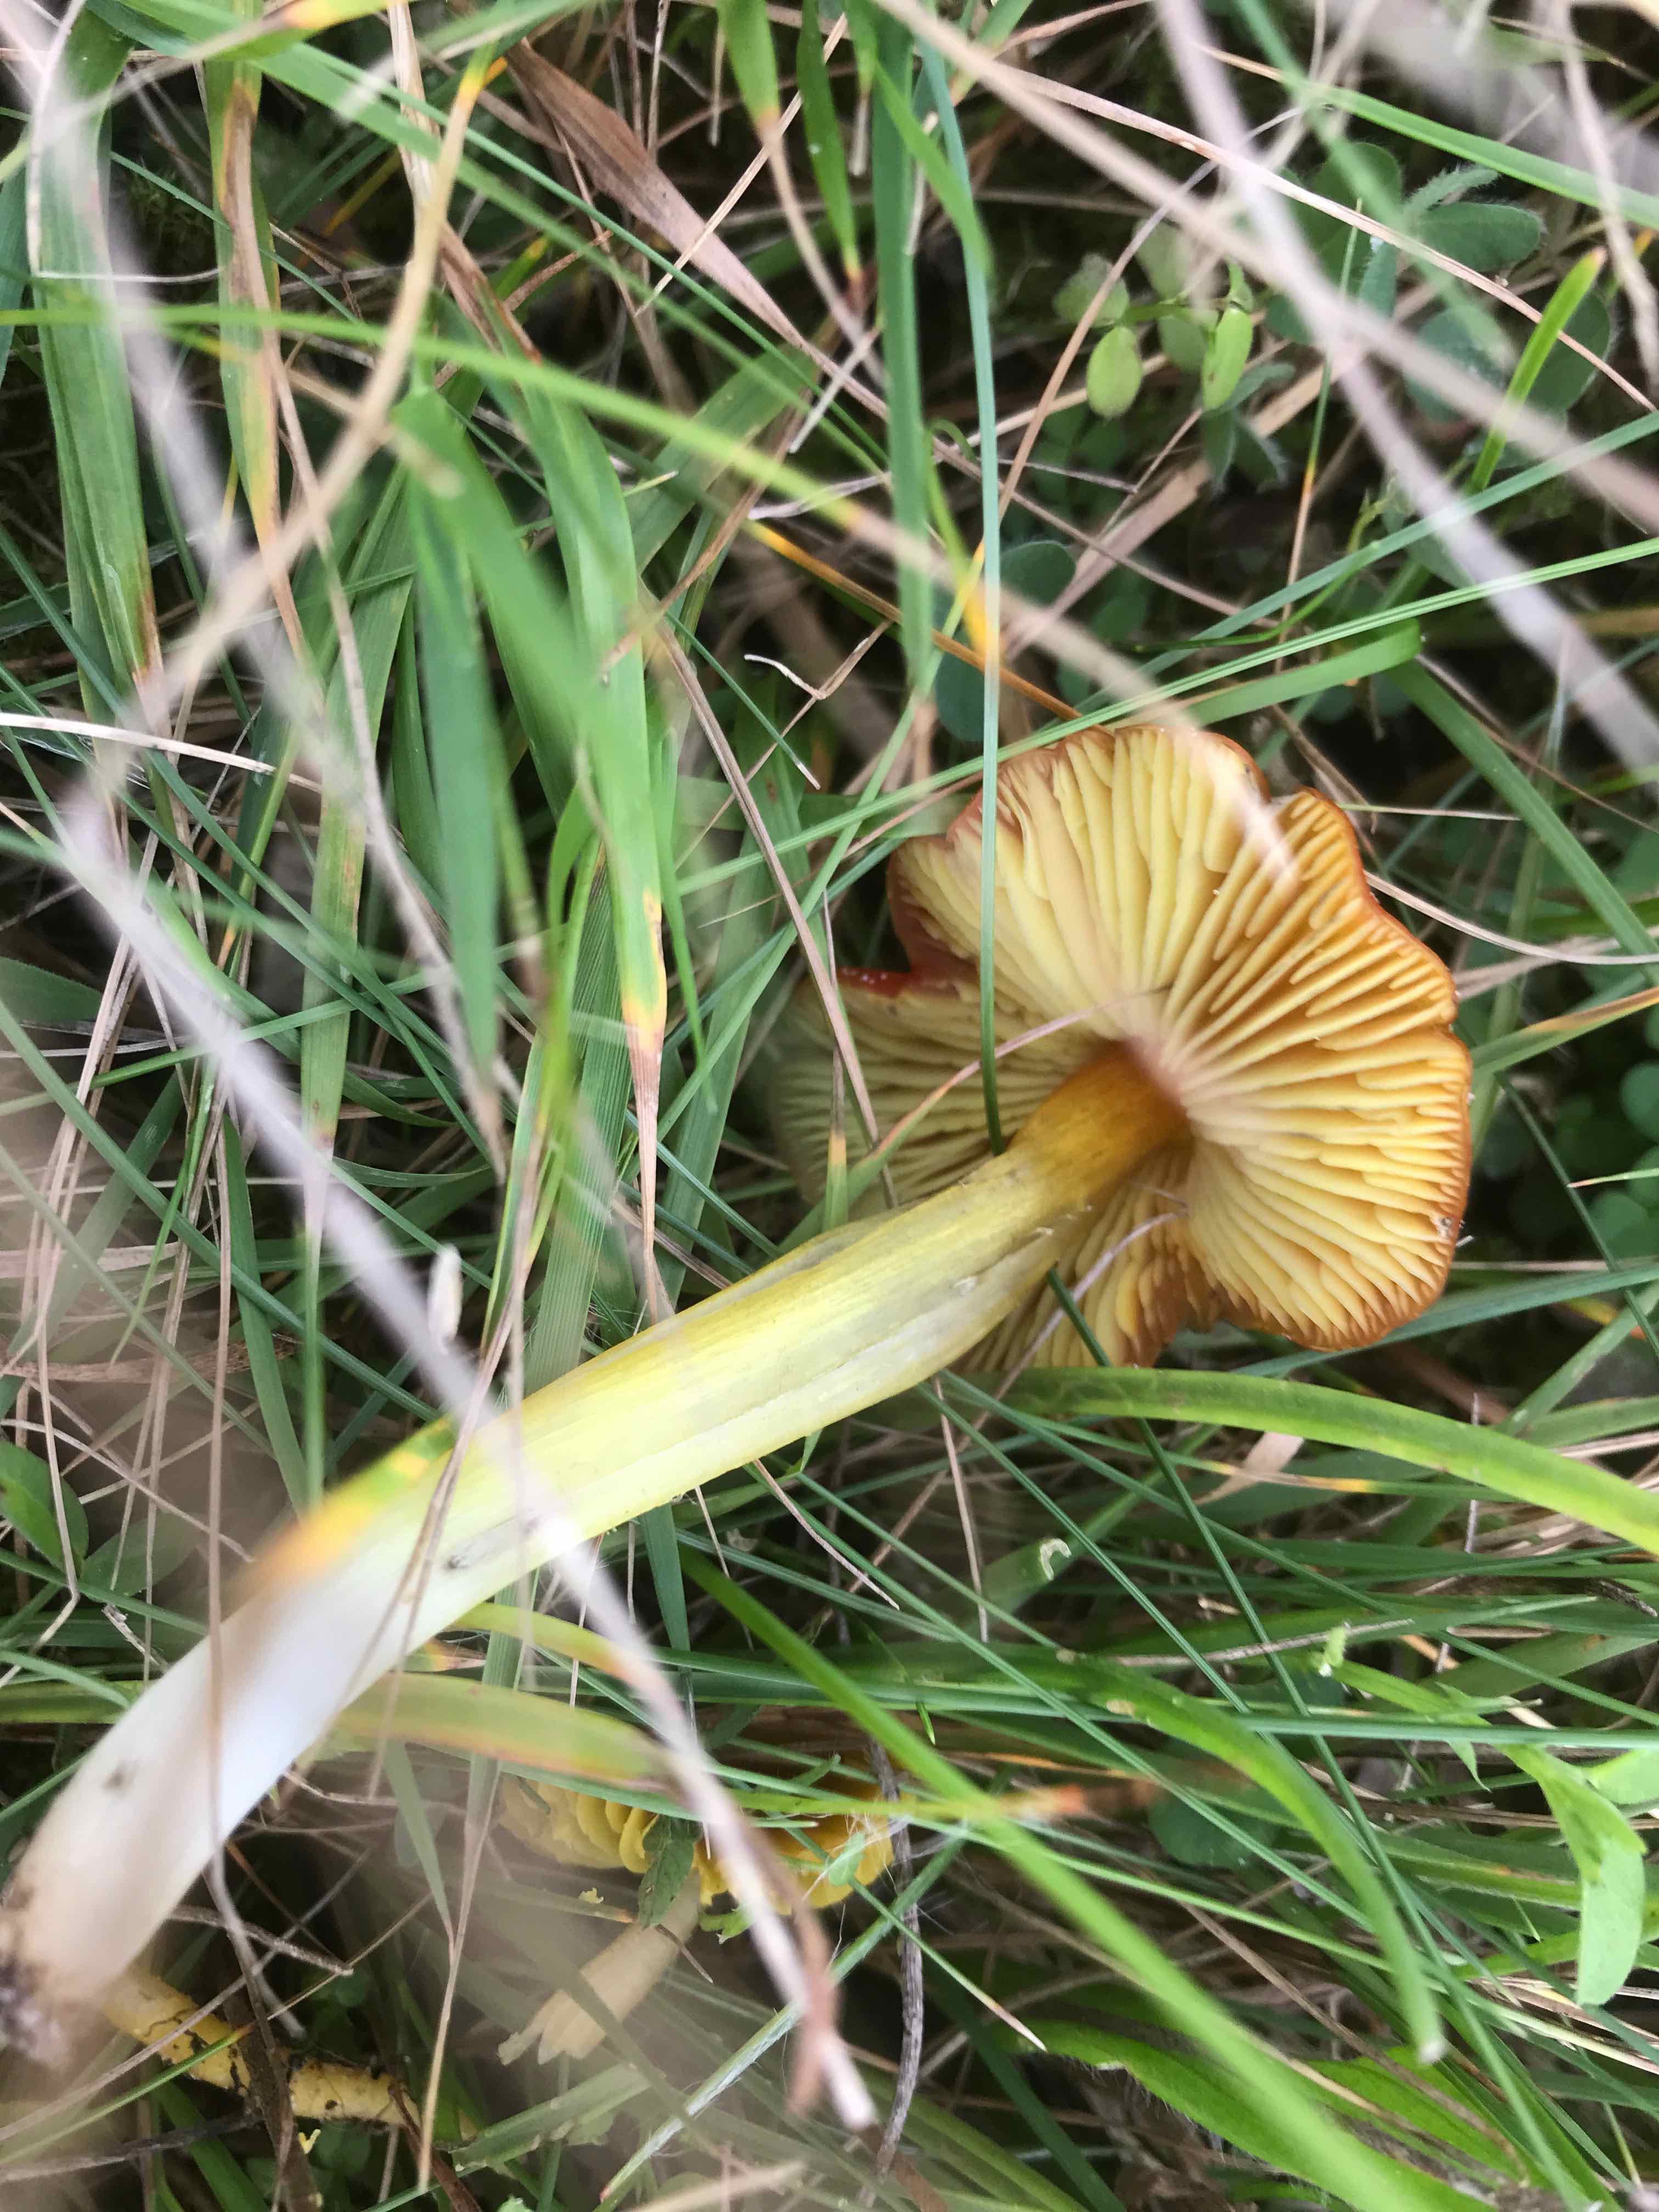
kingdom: Fungi
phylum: Basidiomycota
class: Agaricomycetes
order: Agaricales
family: Hygrophoraceae
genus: Hygrocybe
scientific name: Hygrocybe conica
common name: kegle-vokshat
